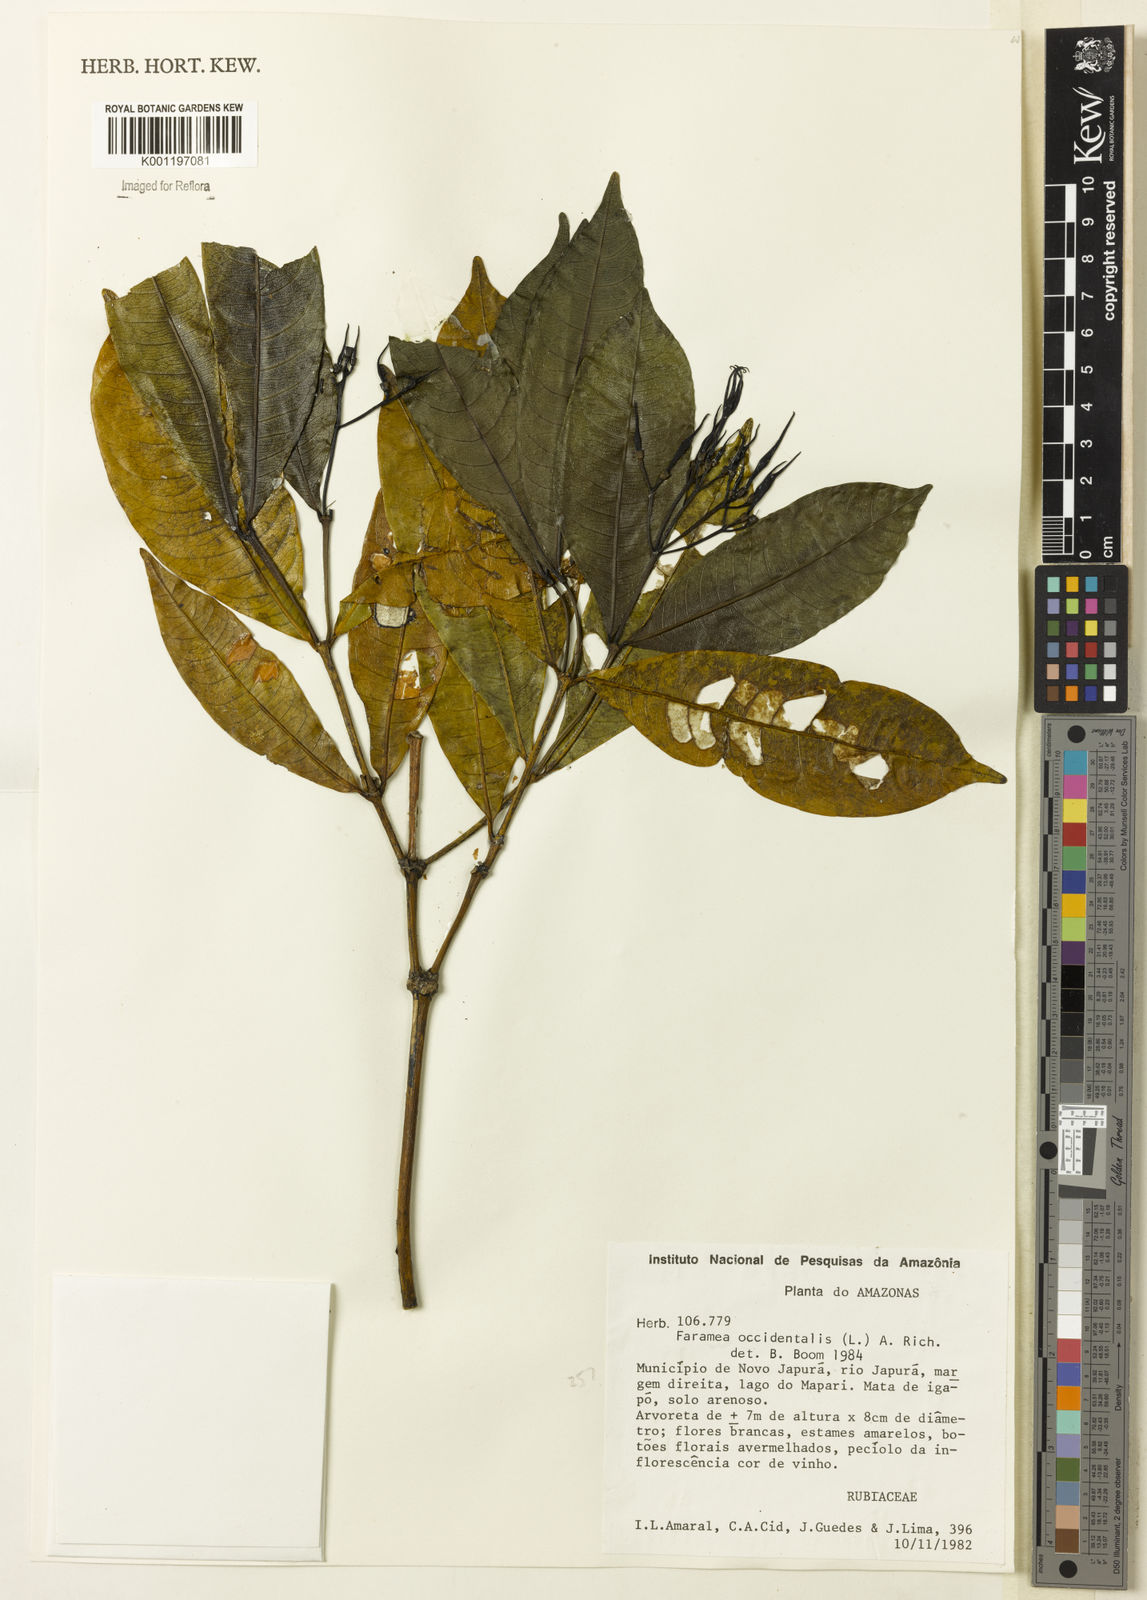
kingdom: Plantae
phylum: Tracheophyta
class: Magnoliopsida
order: Gentianales
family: Rubiaceae
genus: Faramea
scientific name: Faramea occidentalis
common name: False coffee
